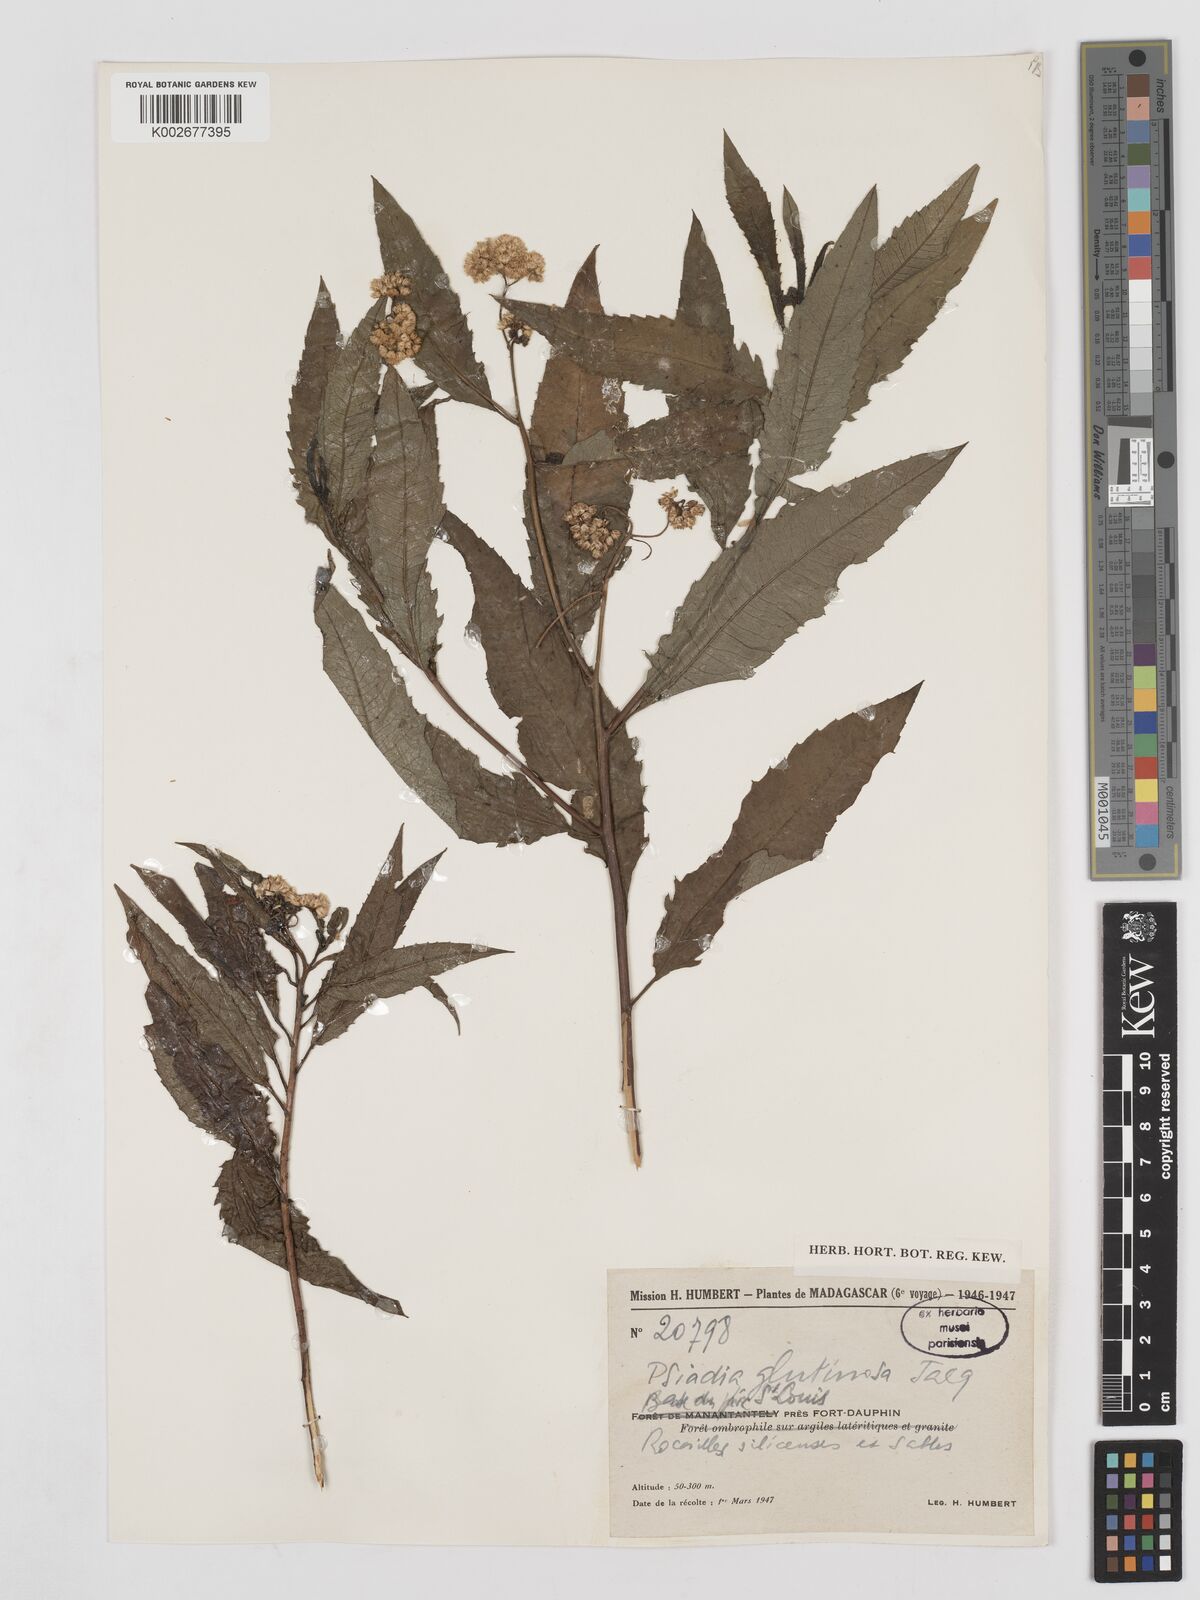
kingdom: Plantae
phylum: Tracheophyta
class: Magnoliopsida
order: Asterales
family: Asteraceae
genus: Psiadia
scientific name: Psiadia glutinosa
